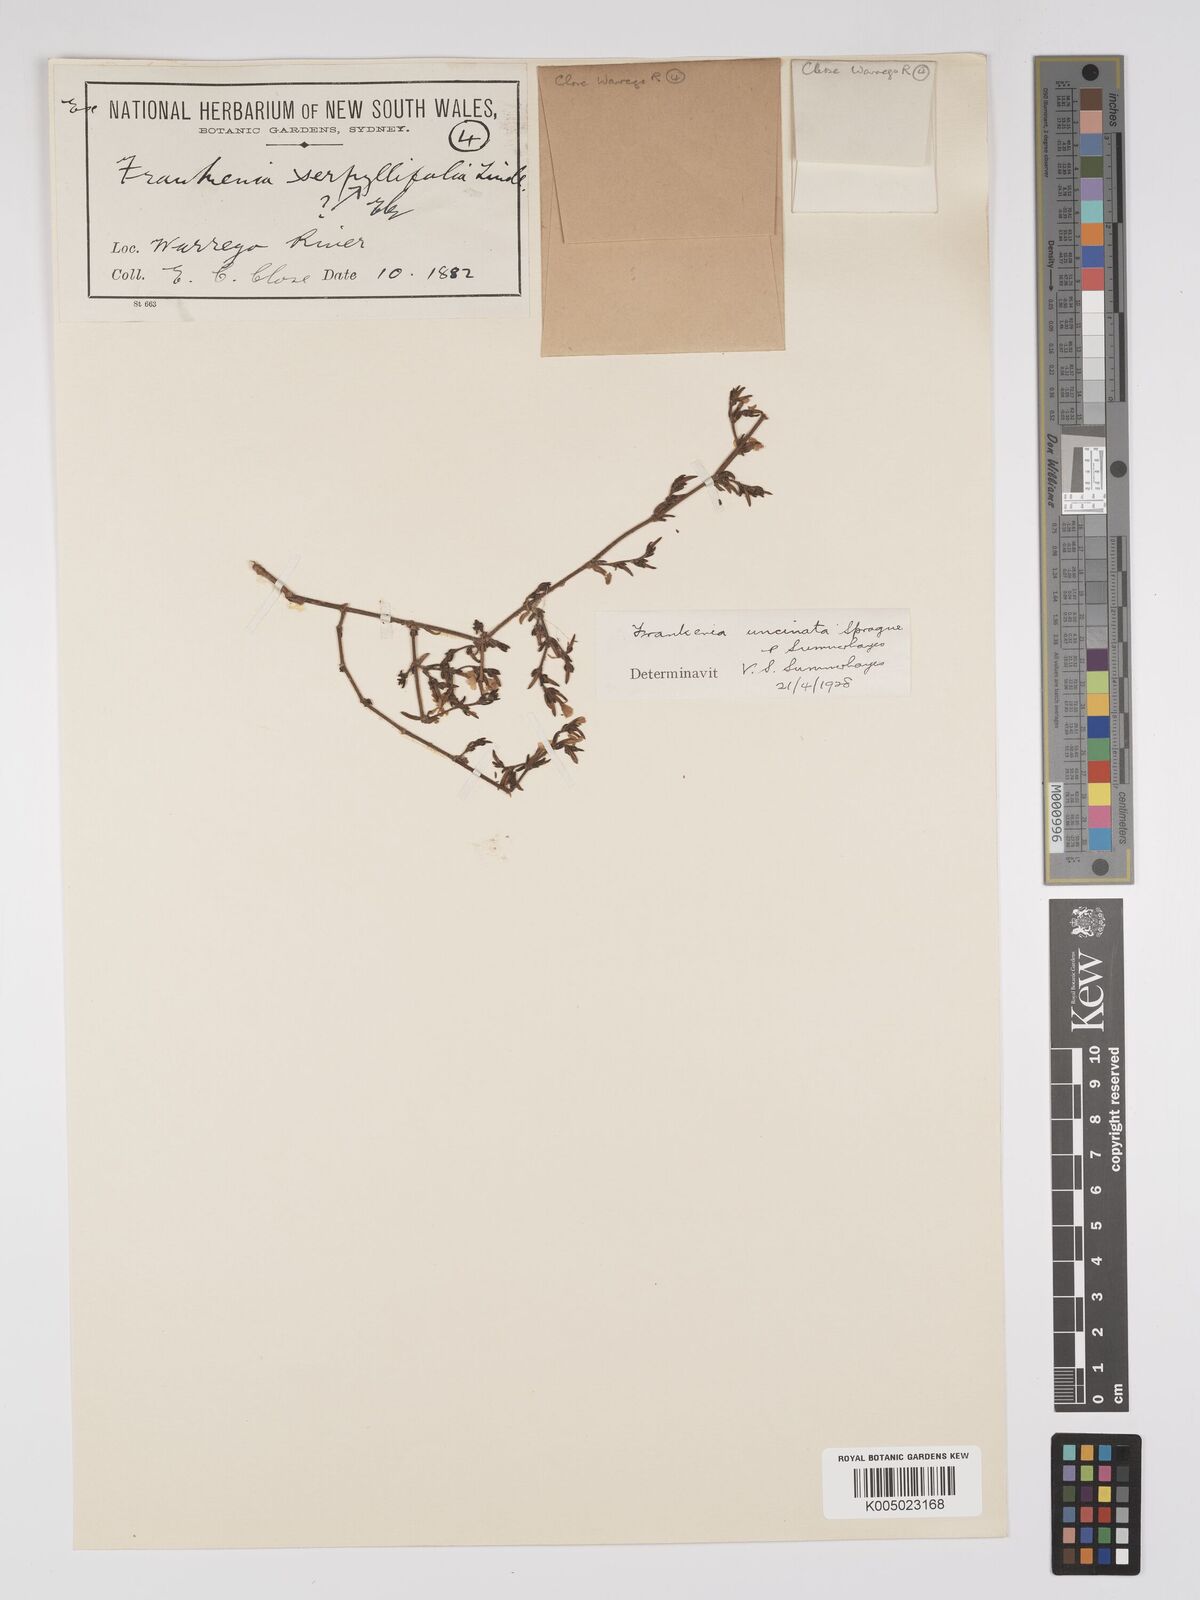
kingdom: Plantae
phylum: Tracheophyta
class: Magnoliopsida
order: Caryophyllales
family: Frankeniaceae
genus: Frankenia
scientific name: Frankenia uncinata
